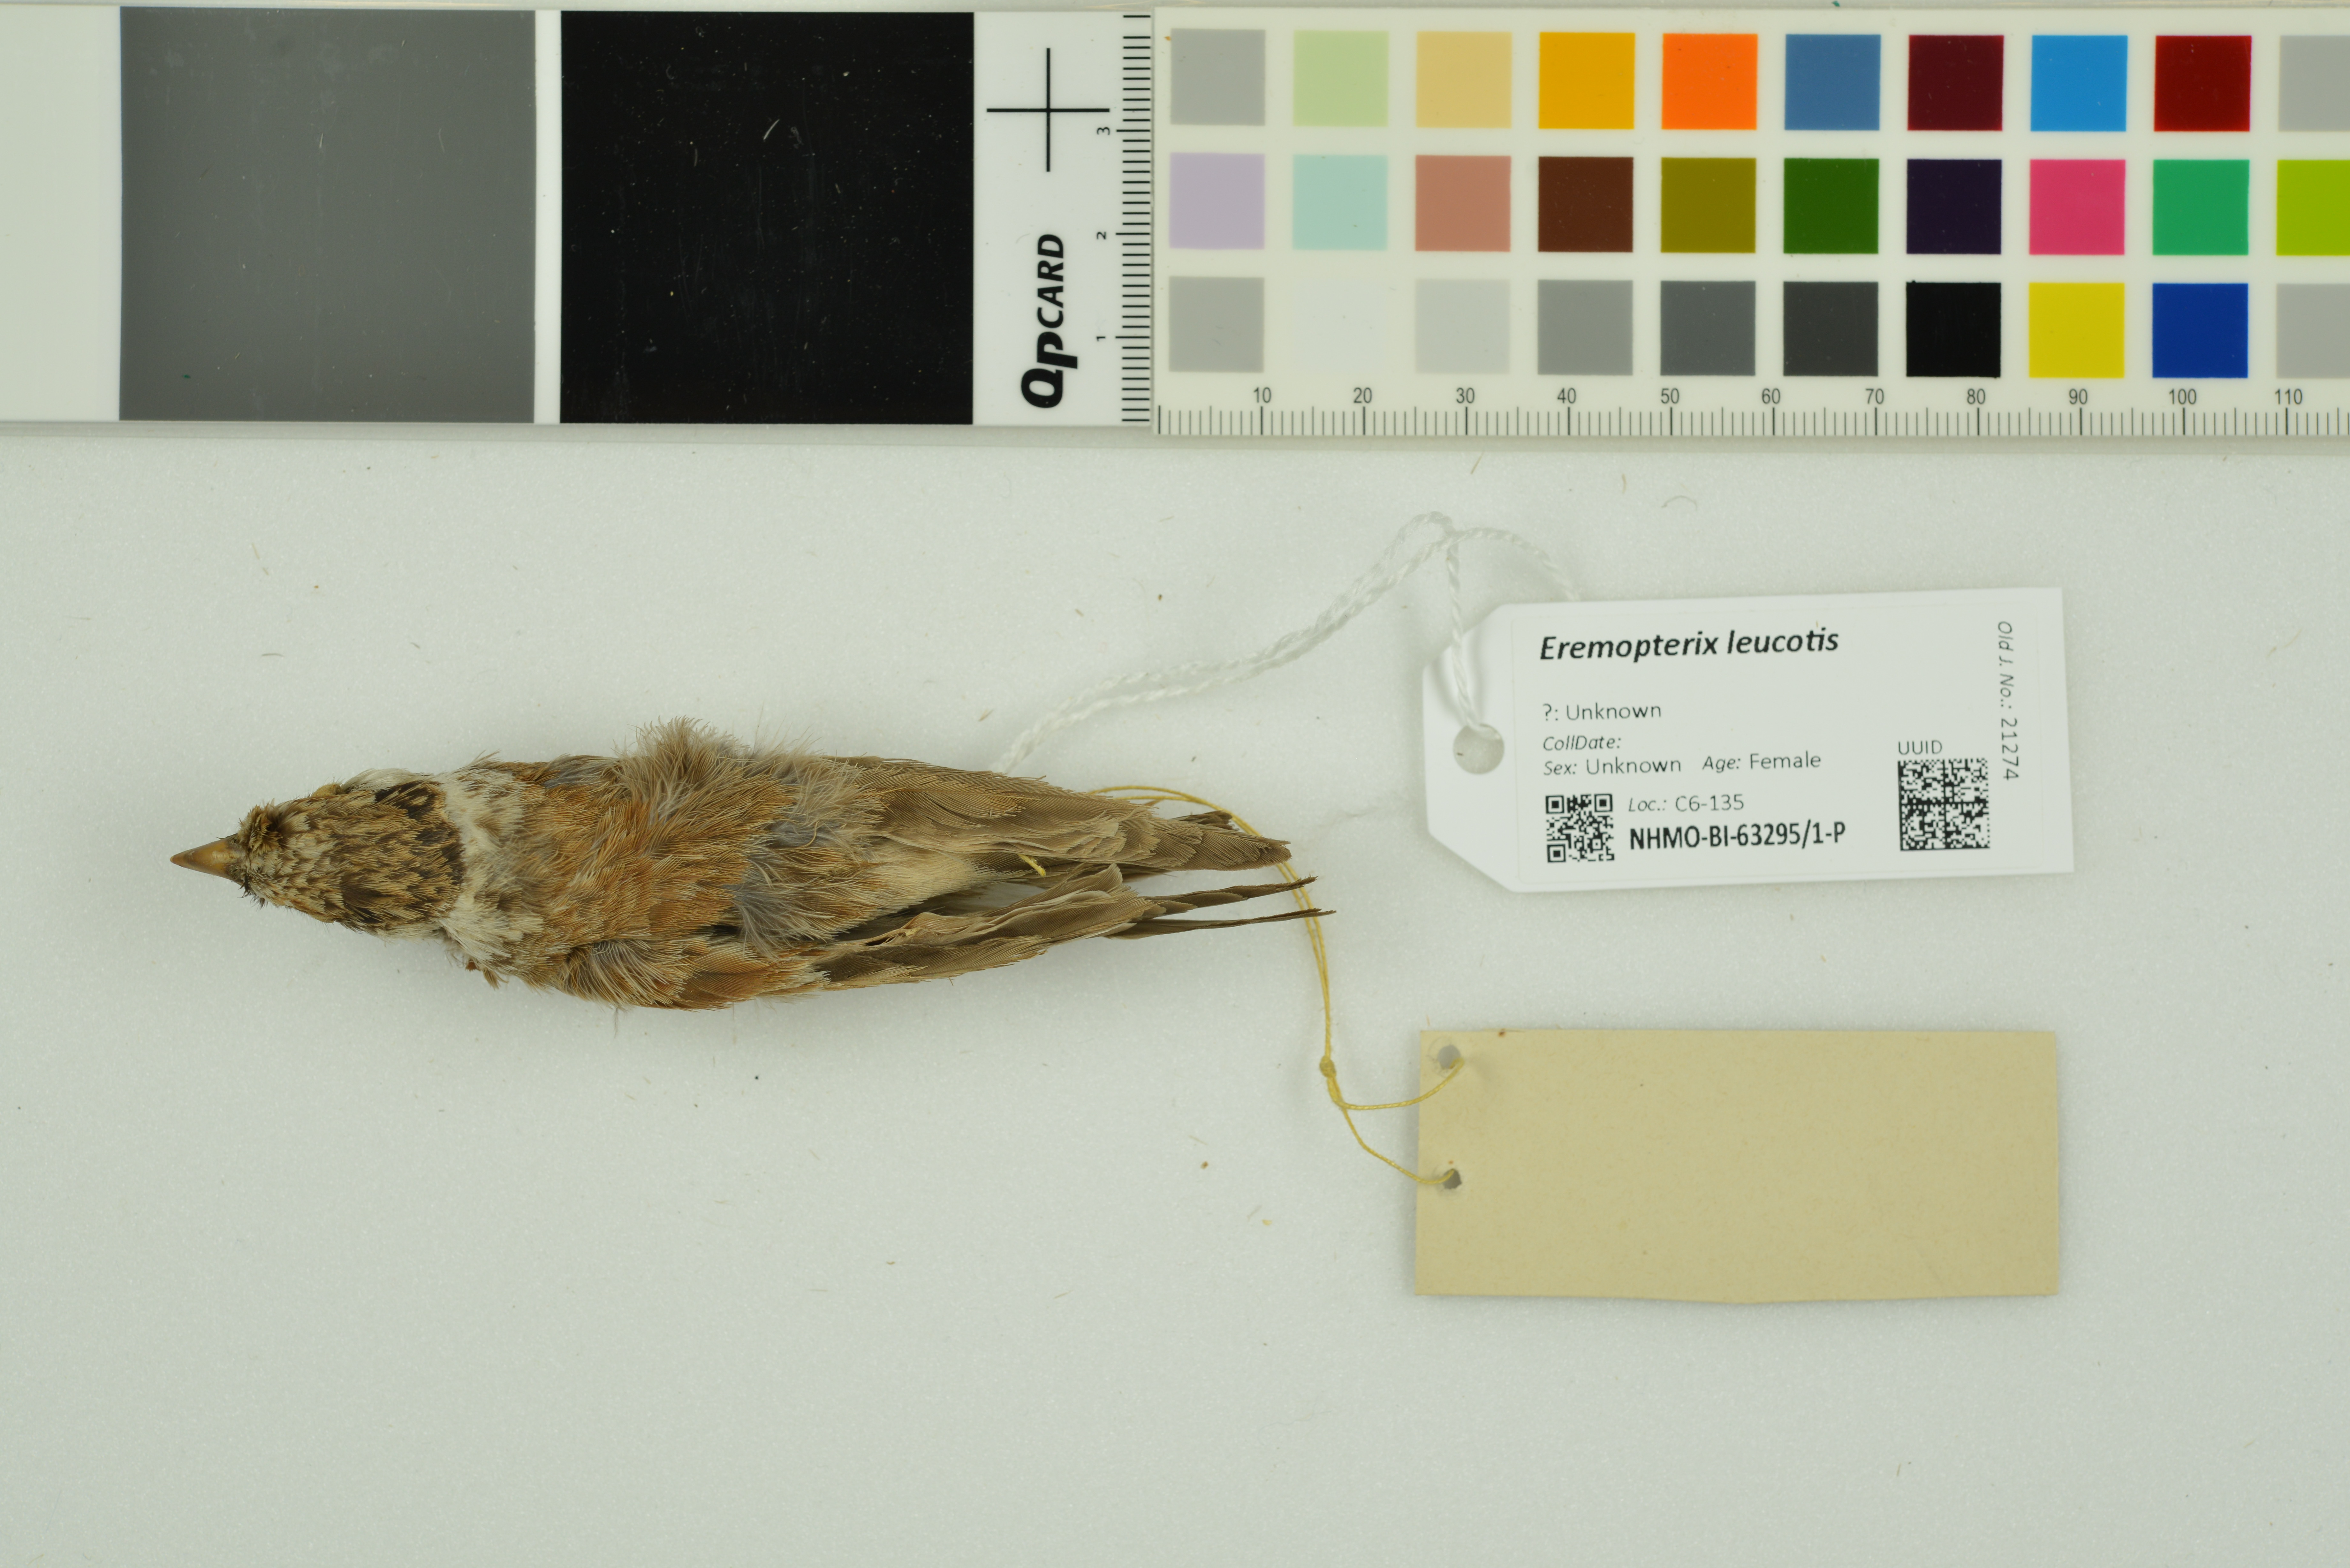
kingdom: Animalia
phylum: Chordata
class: Aves
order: Passeriformes
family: Alaudidae
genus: Eremopterix
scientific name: Eremopterix leucotis
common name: Chestnut-backed sparrow-lark
